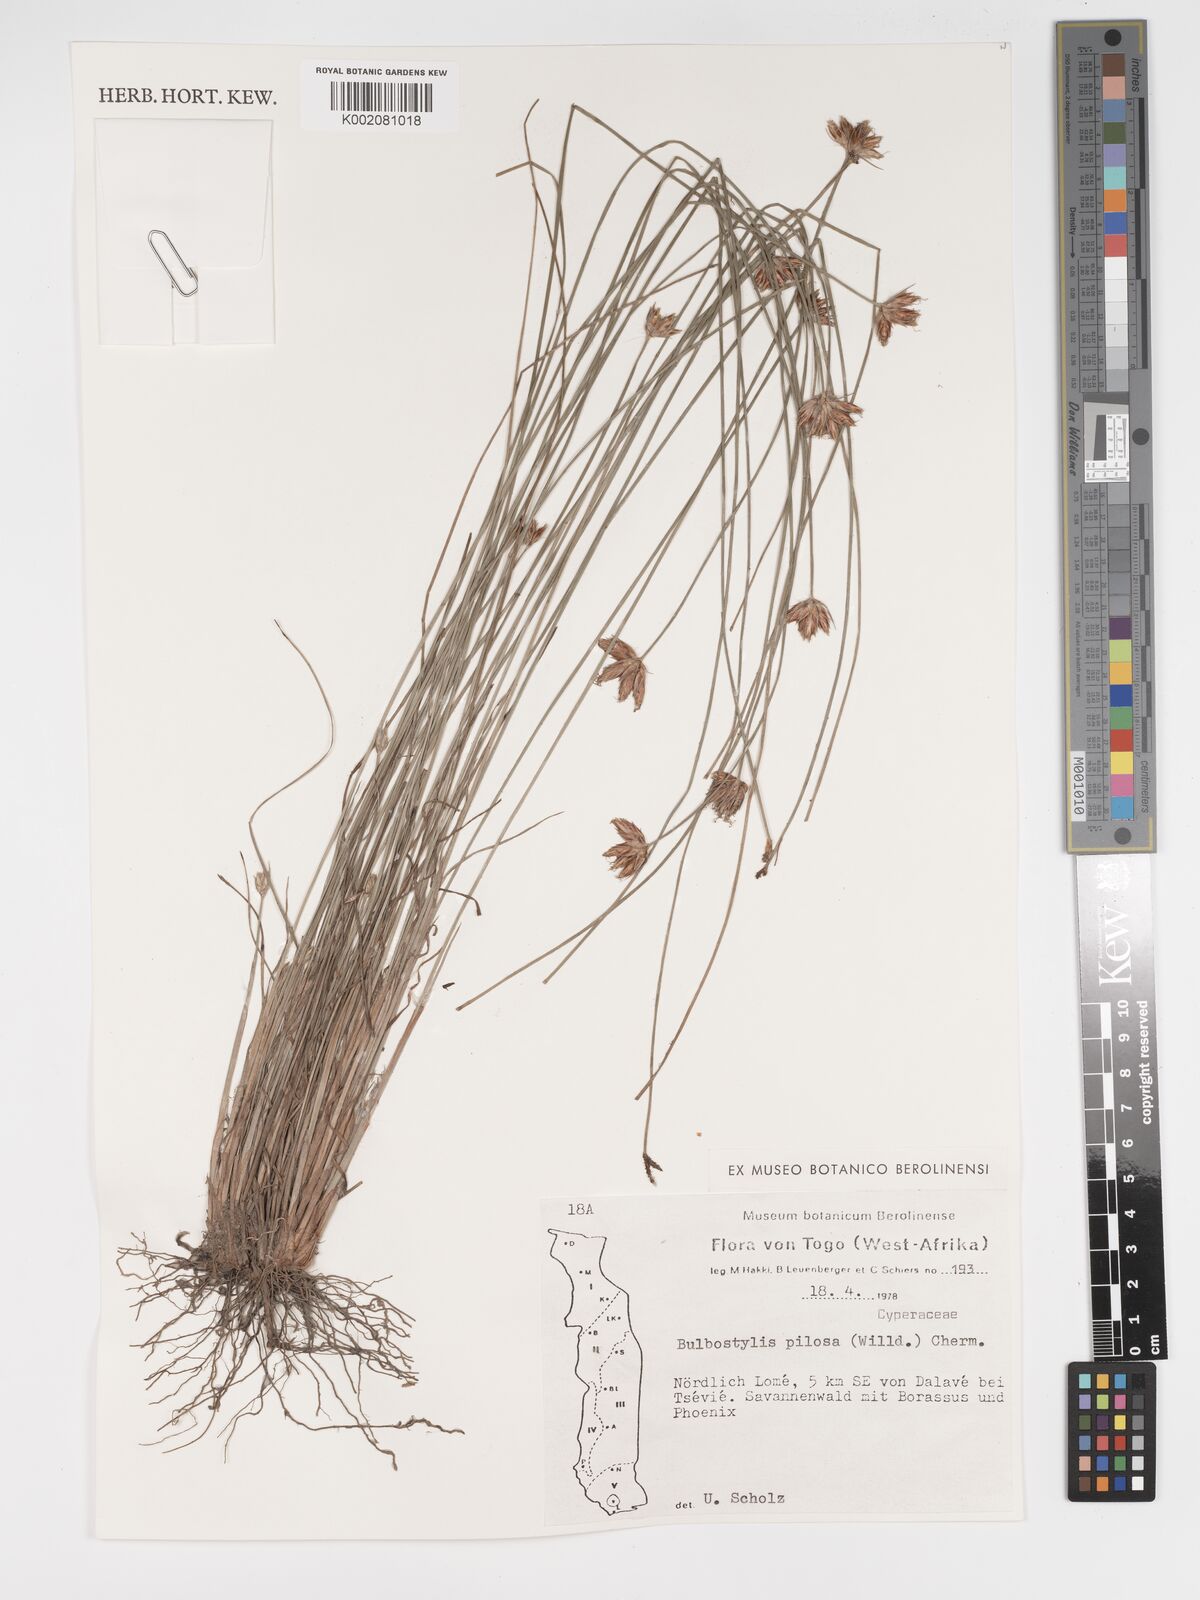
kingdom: Plantae
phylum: Tracheophyta
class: Liliopsida
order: Poales
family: Cyperaceae
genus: Bulbostylis
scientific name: Bulbostylis pilosa
